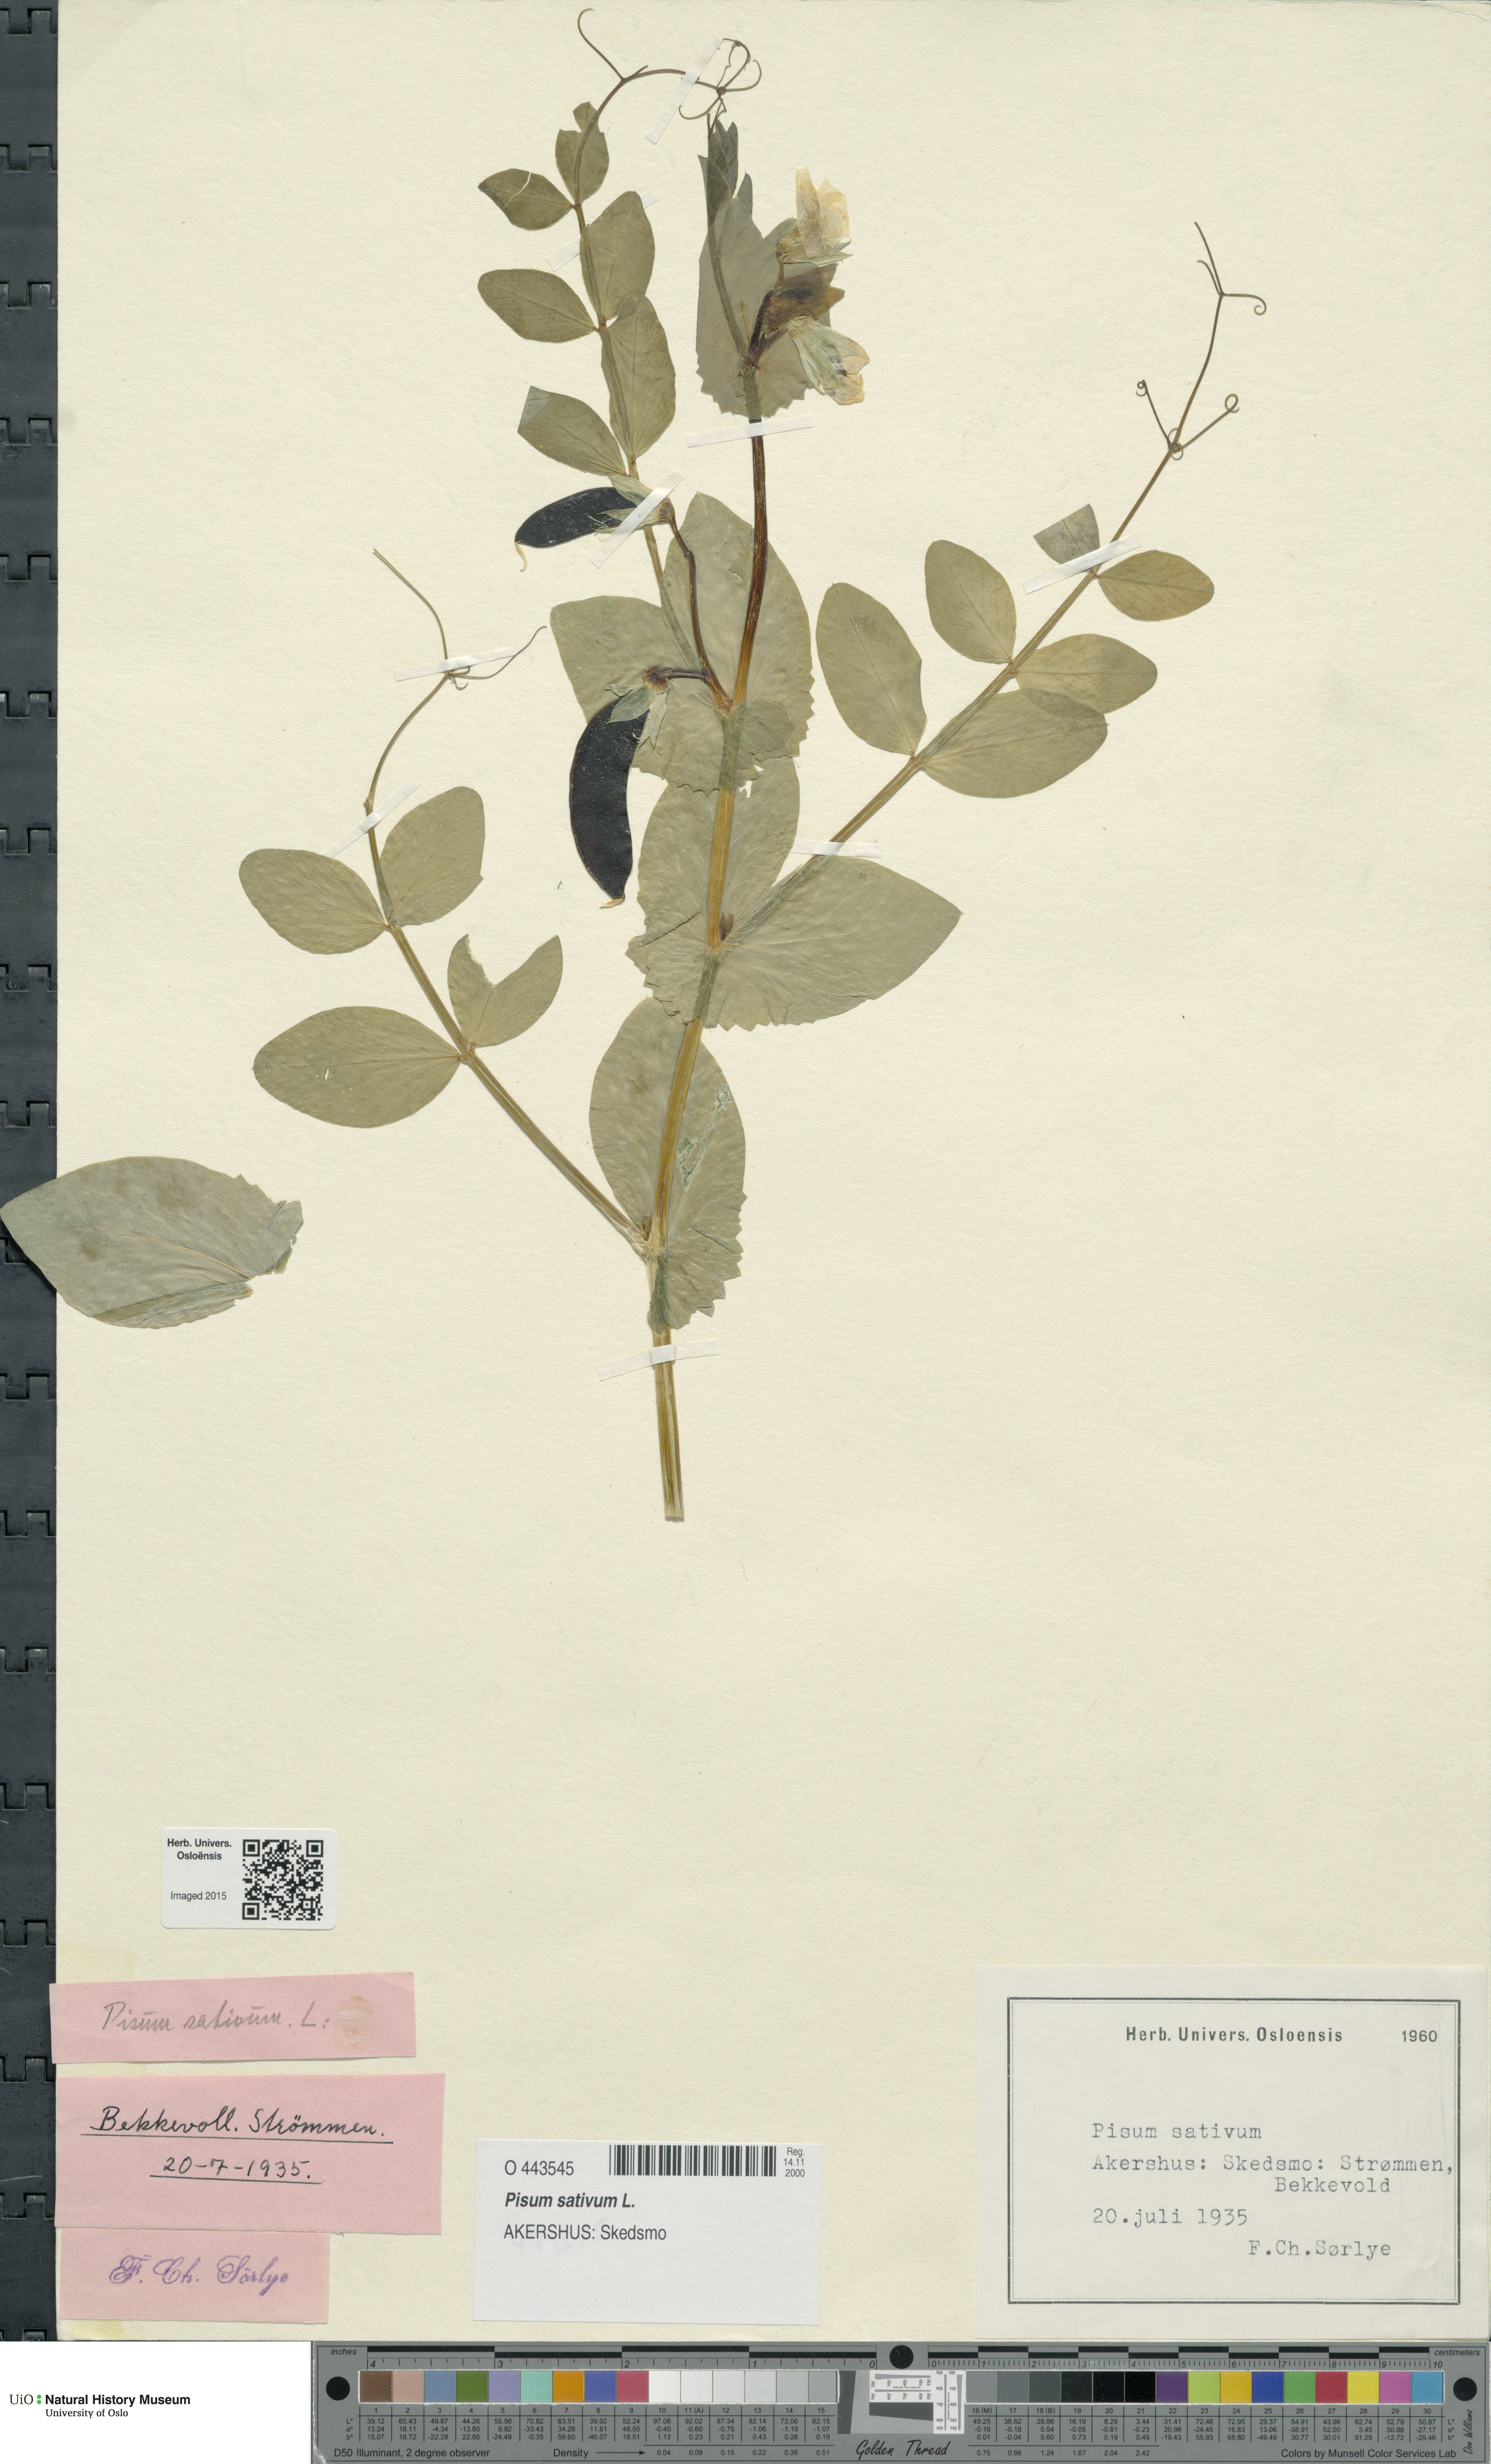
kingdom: Plantae
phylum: Tracheophyta
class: Magnoliopsida
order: Fabales
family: Fabaceae
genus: Lathyrus
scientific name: Lathyrus oleraceus
